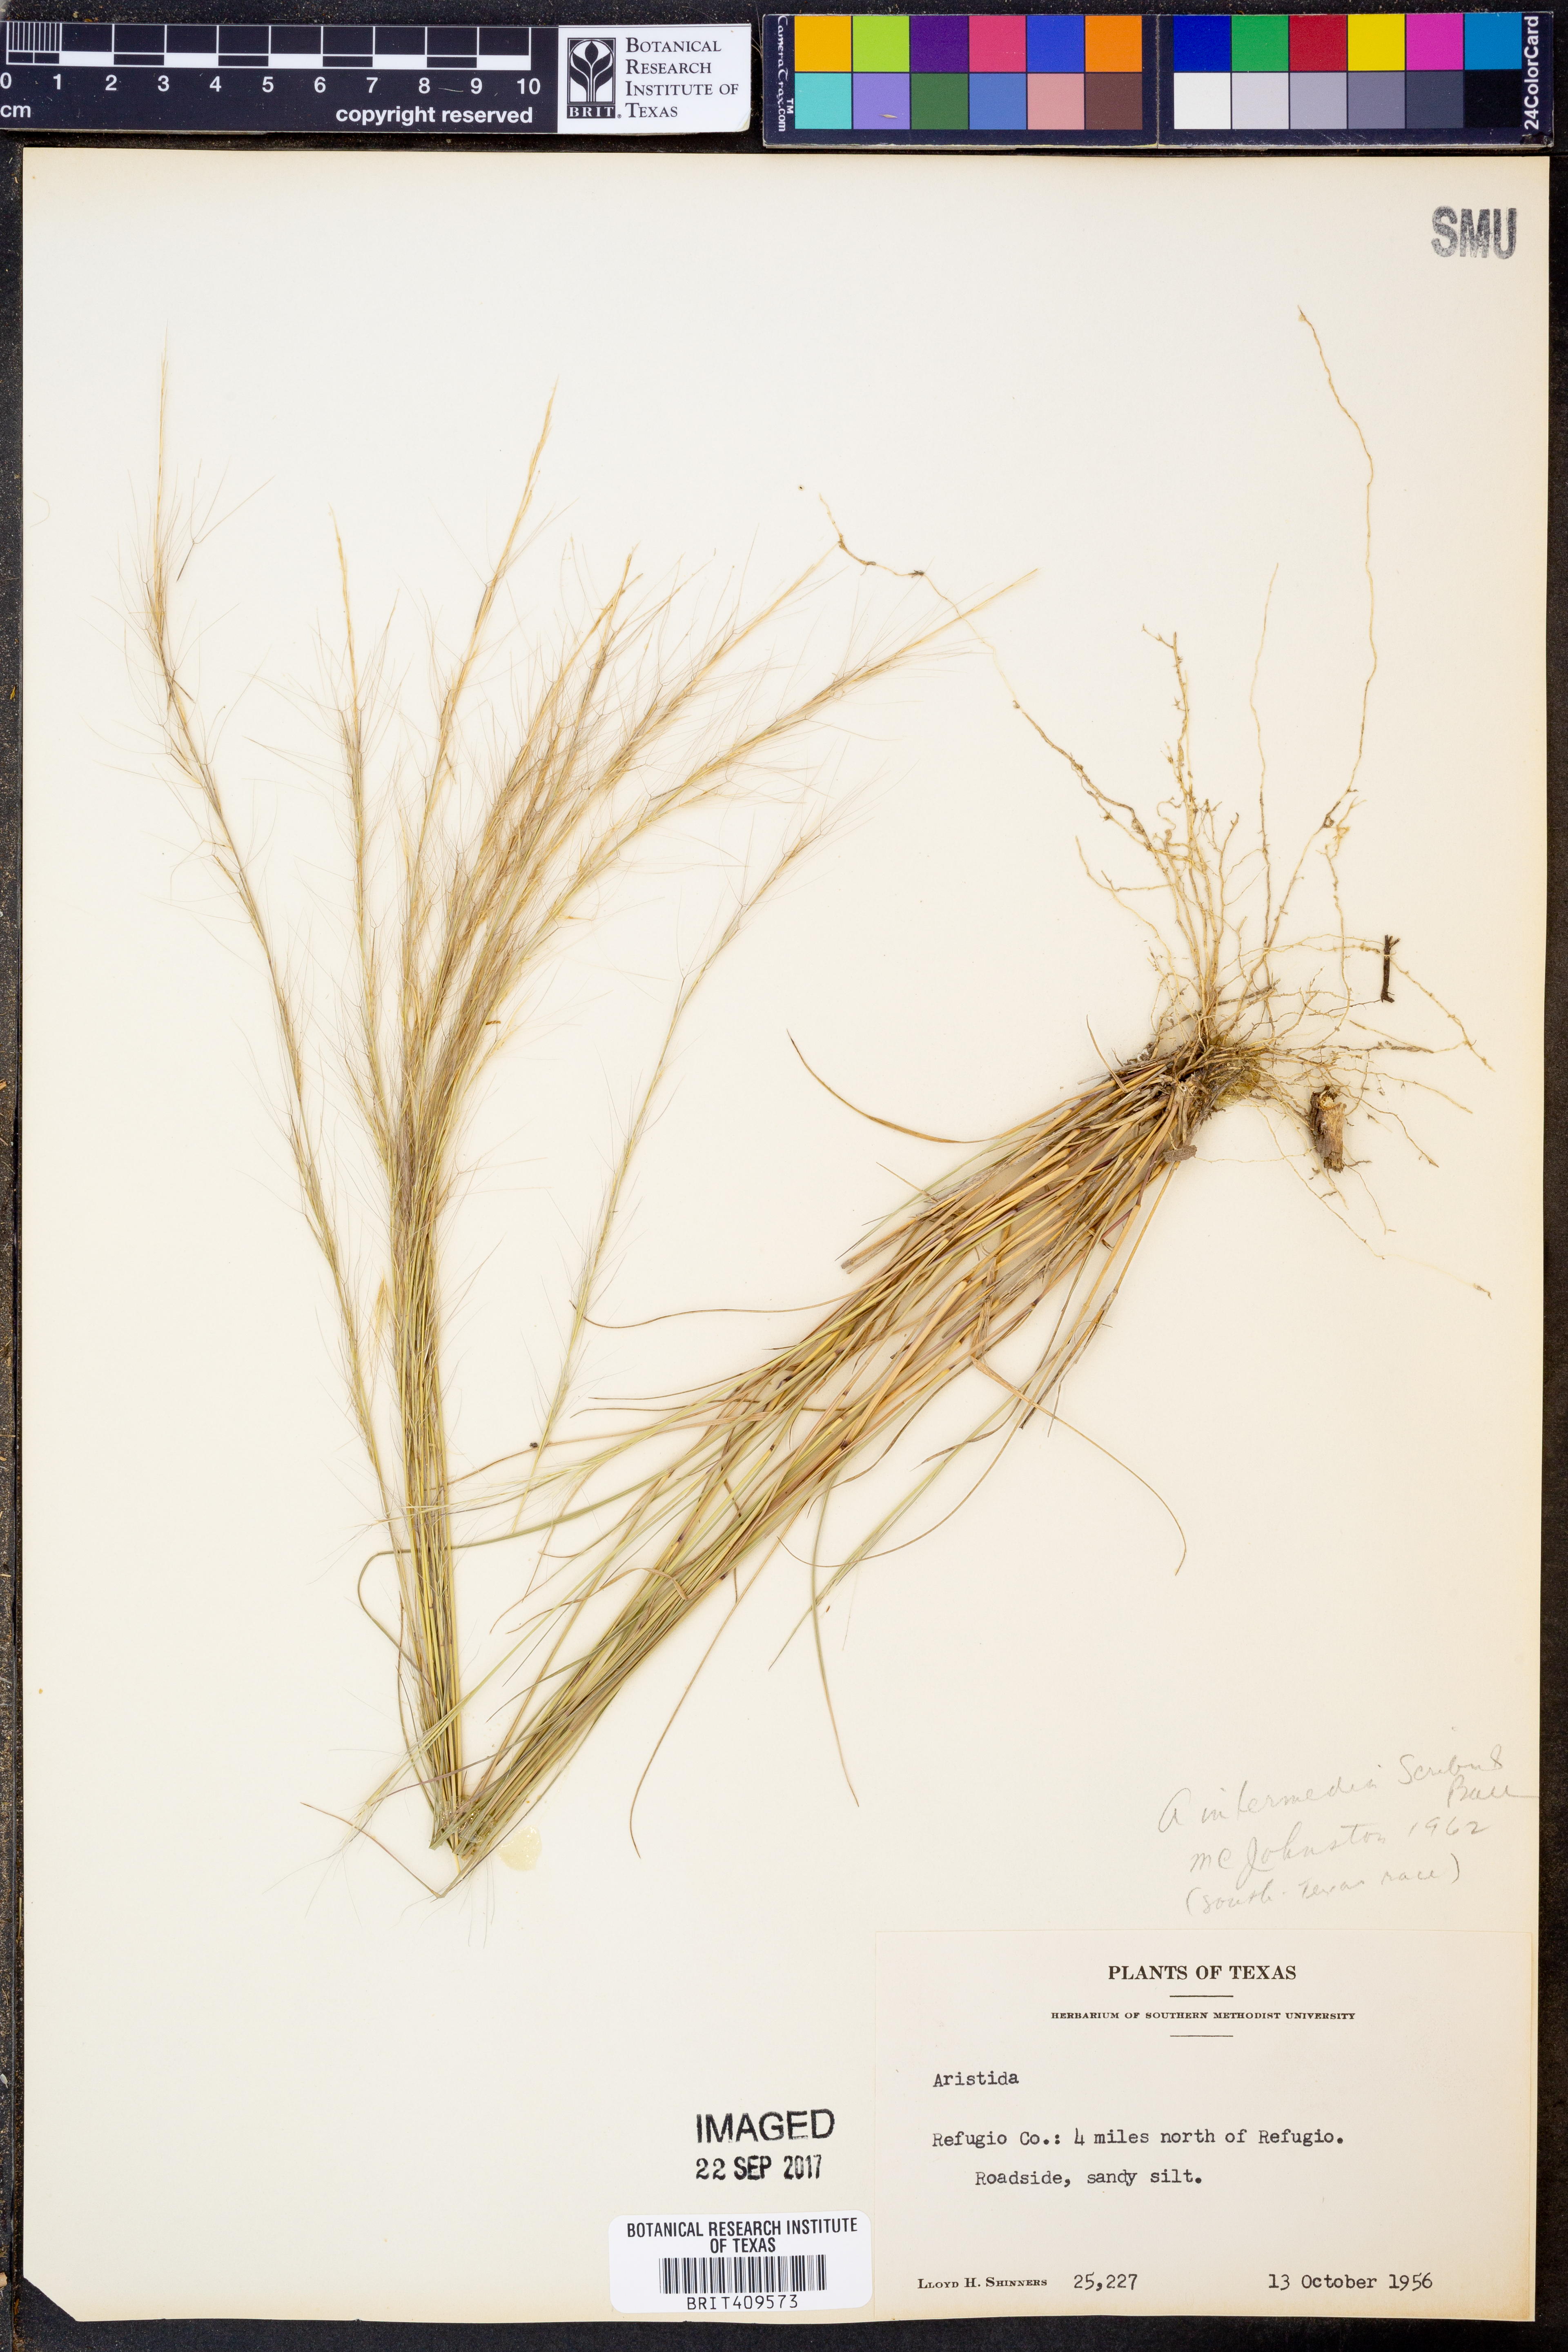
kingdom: Plantae
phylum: Tracheophyta
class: Liliopsida
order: Poales
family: Poaceae
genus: Aristida
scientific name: Aristida longespica
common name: Long-spiked triple-awned grass
